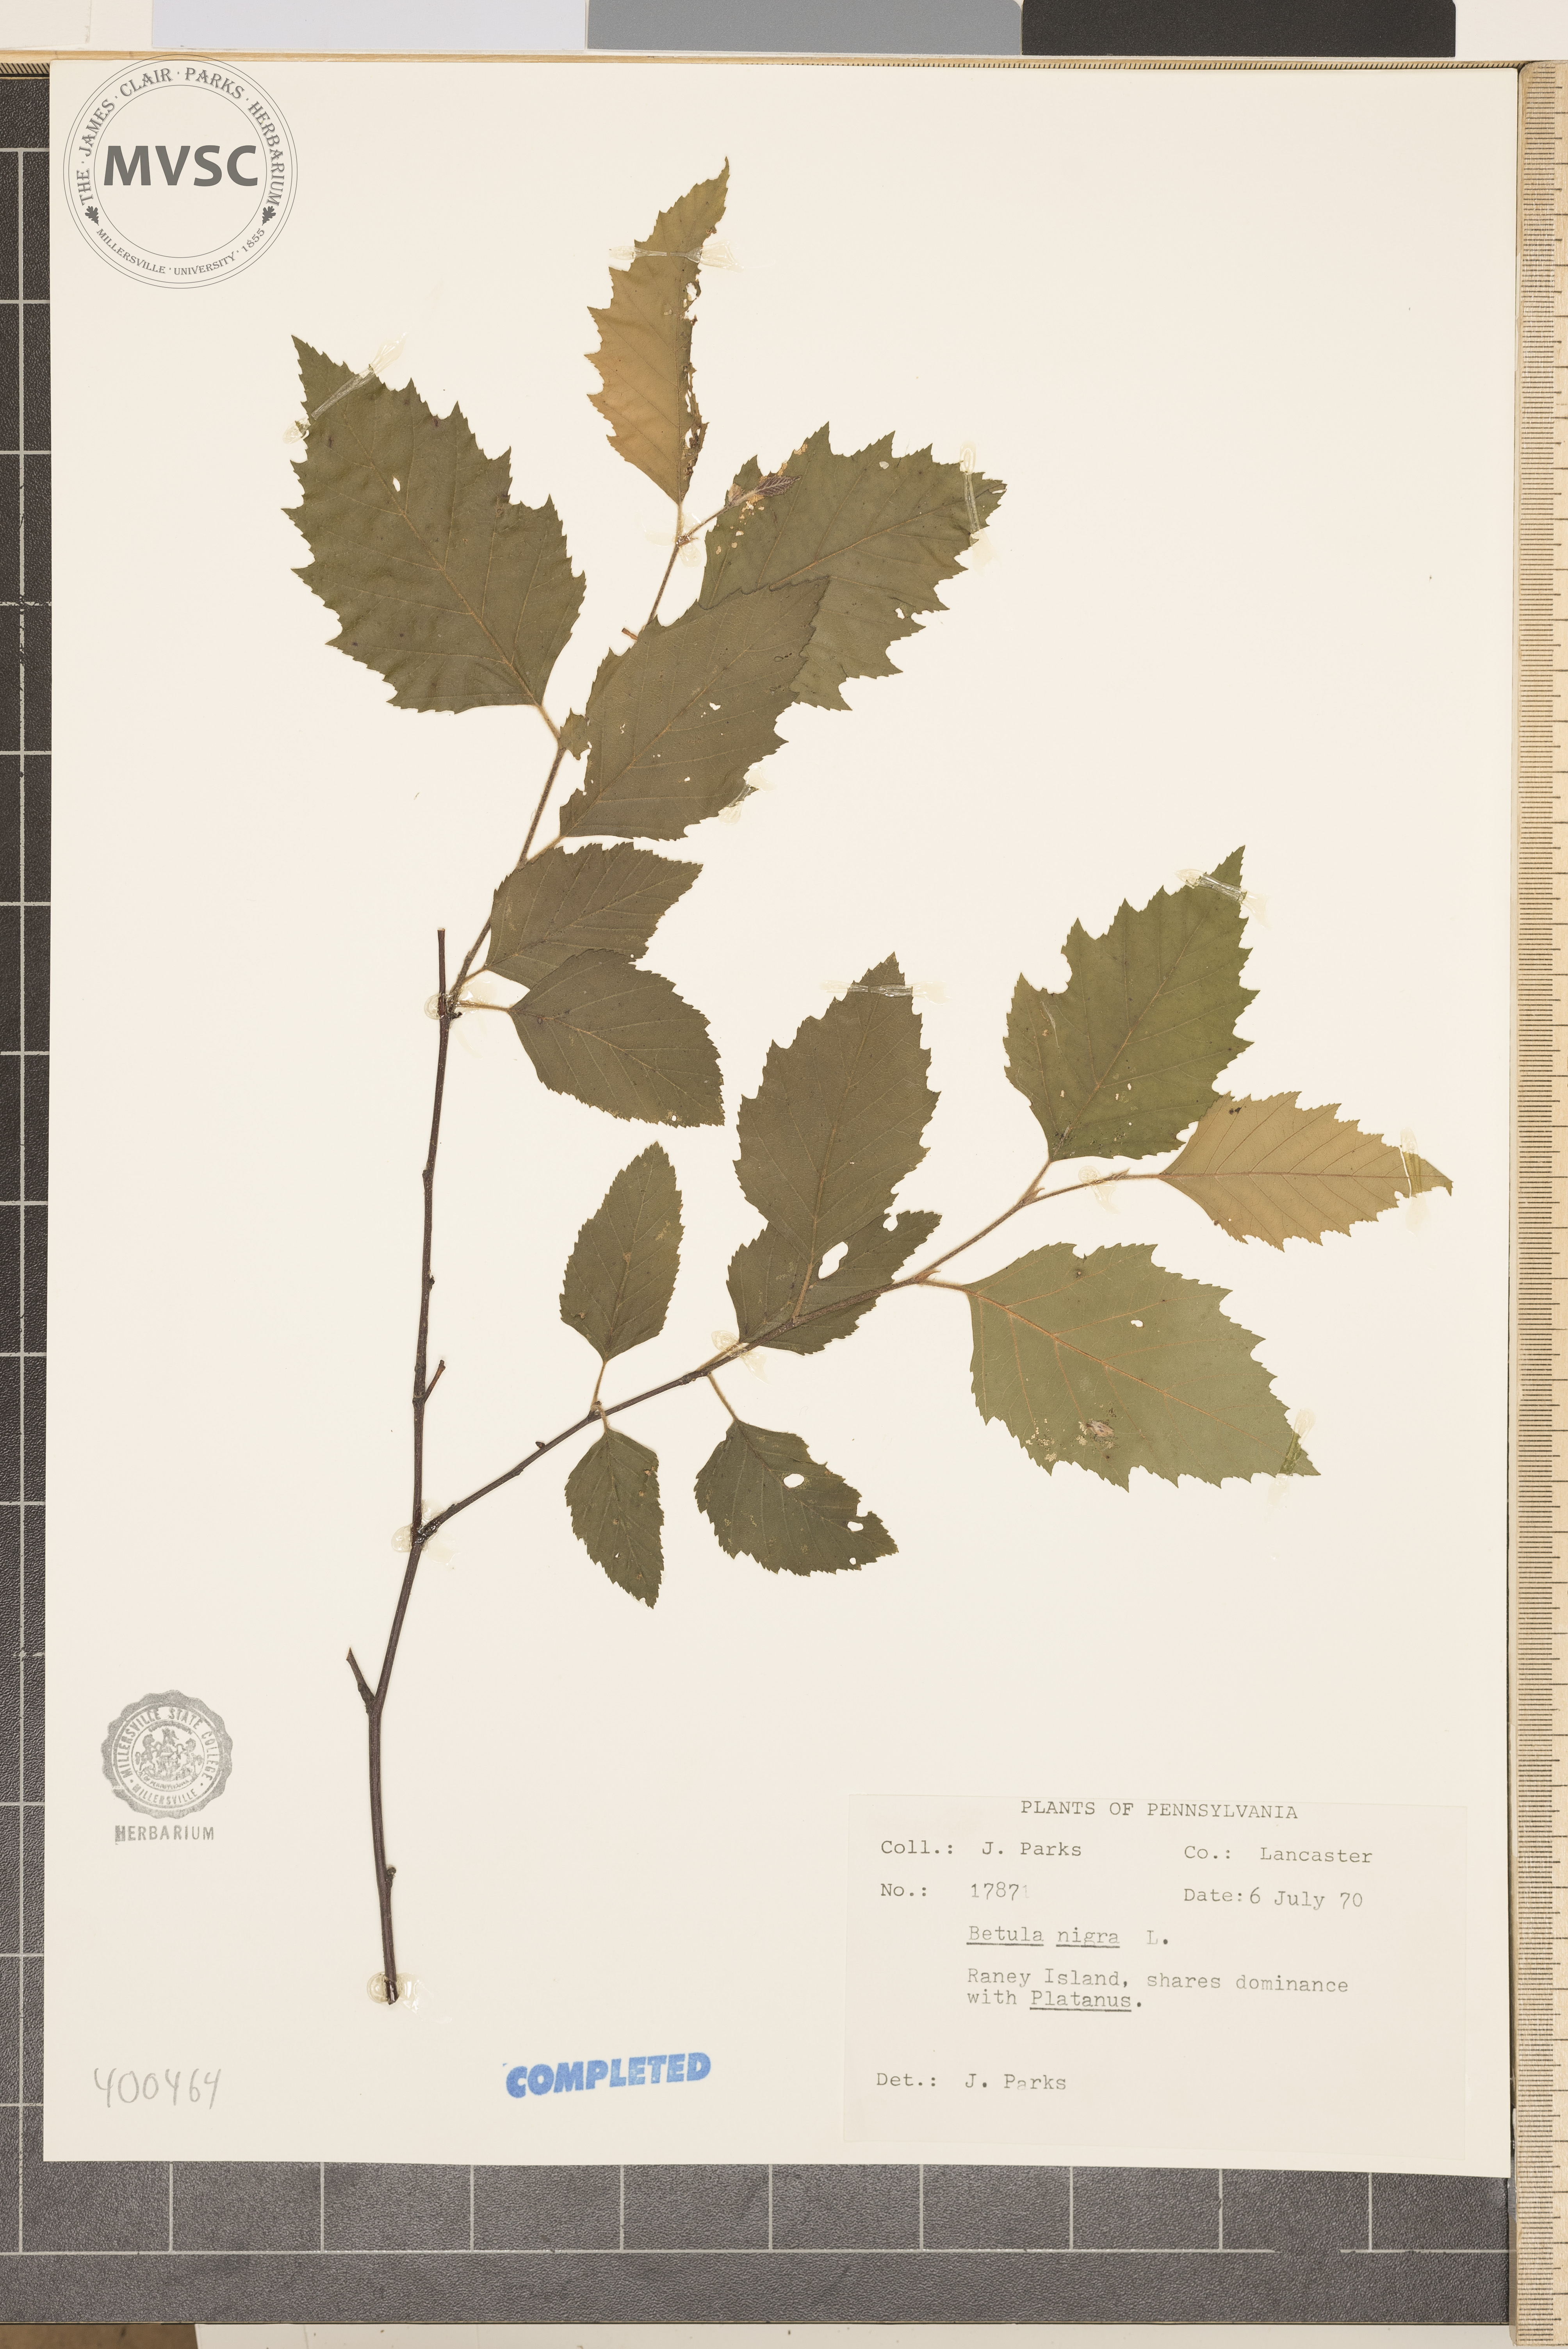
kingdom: Plantae
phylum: Tracheophyta
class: Magnoliopsida
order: Fagales
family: Betulaceae
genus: Betula
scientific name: Betula nigra
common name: river birch
